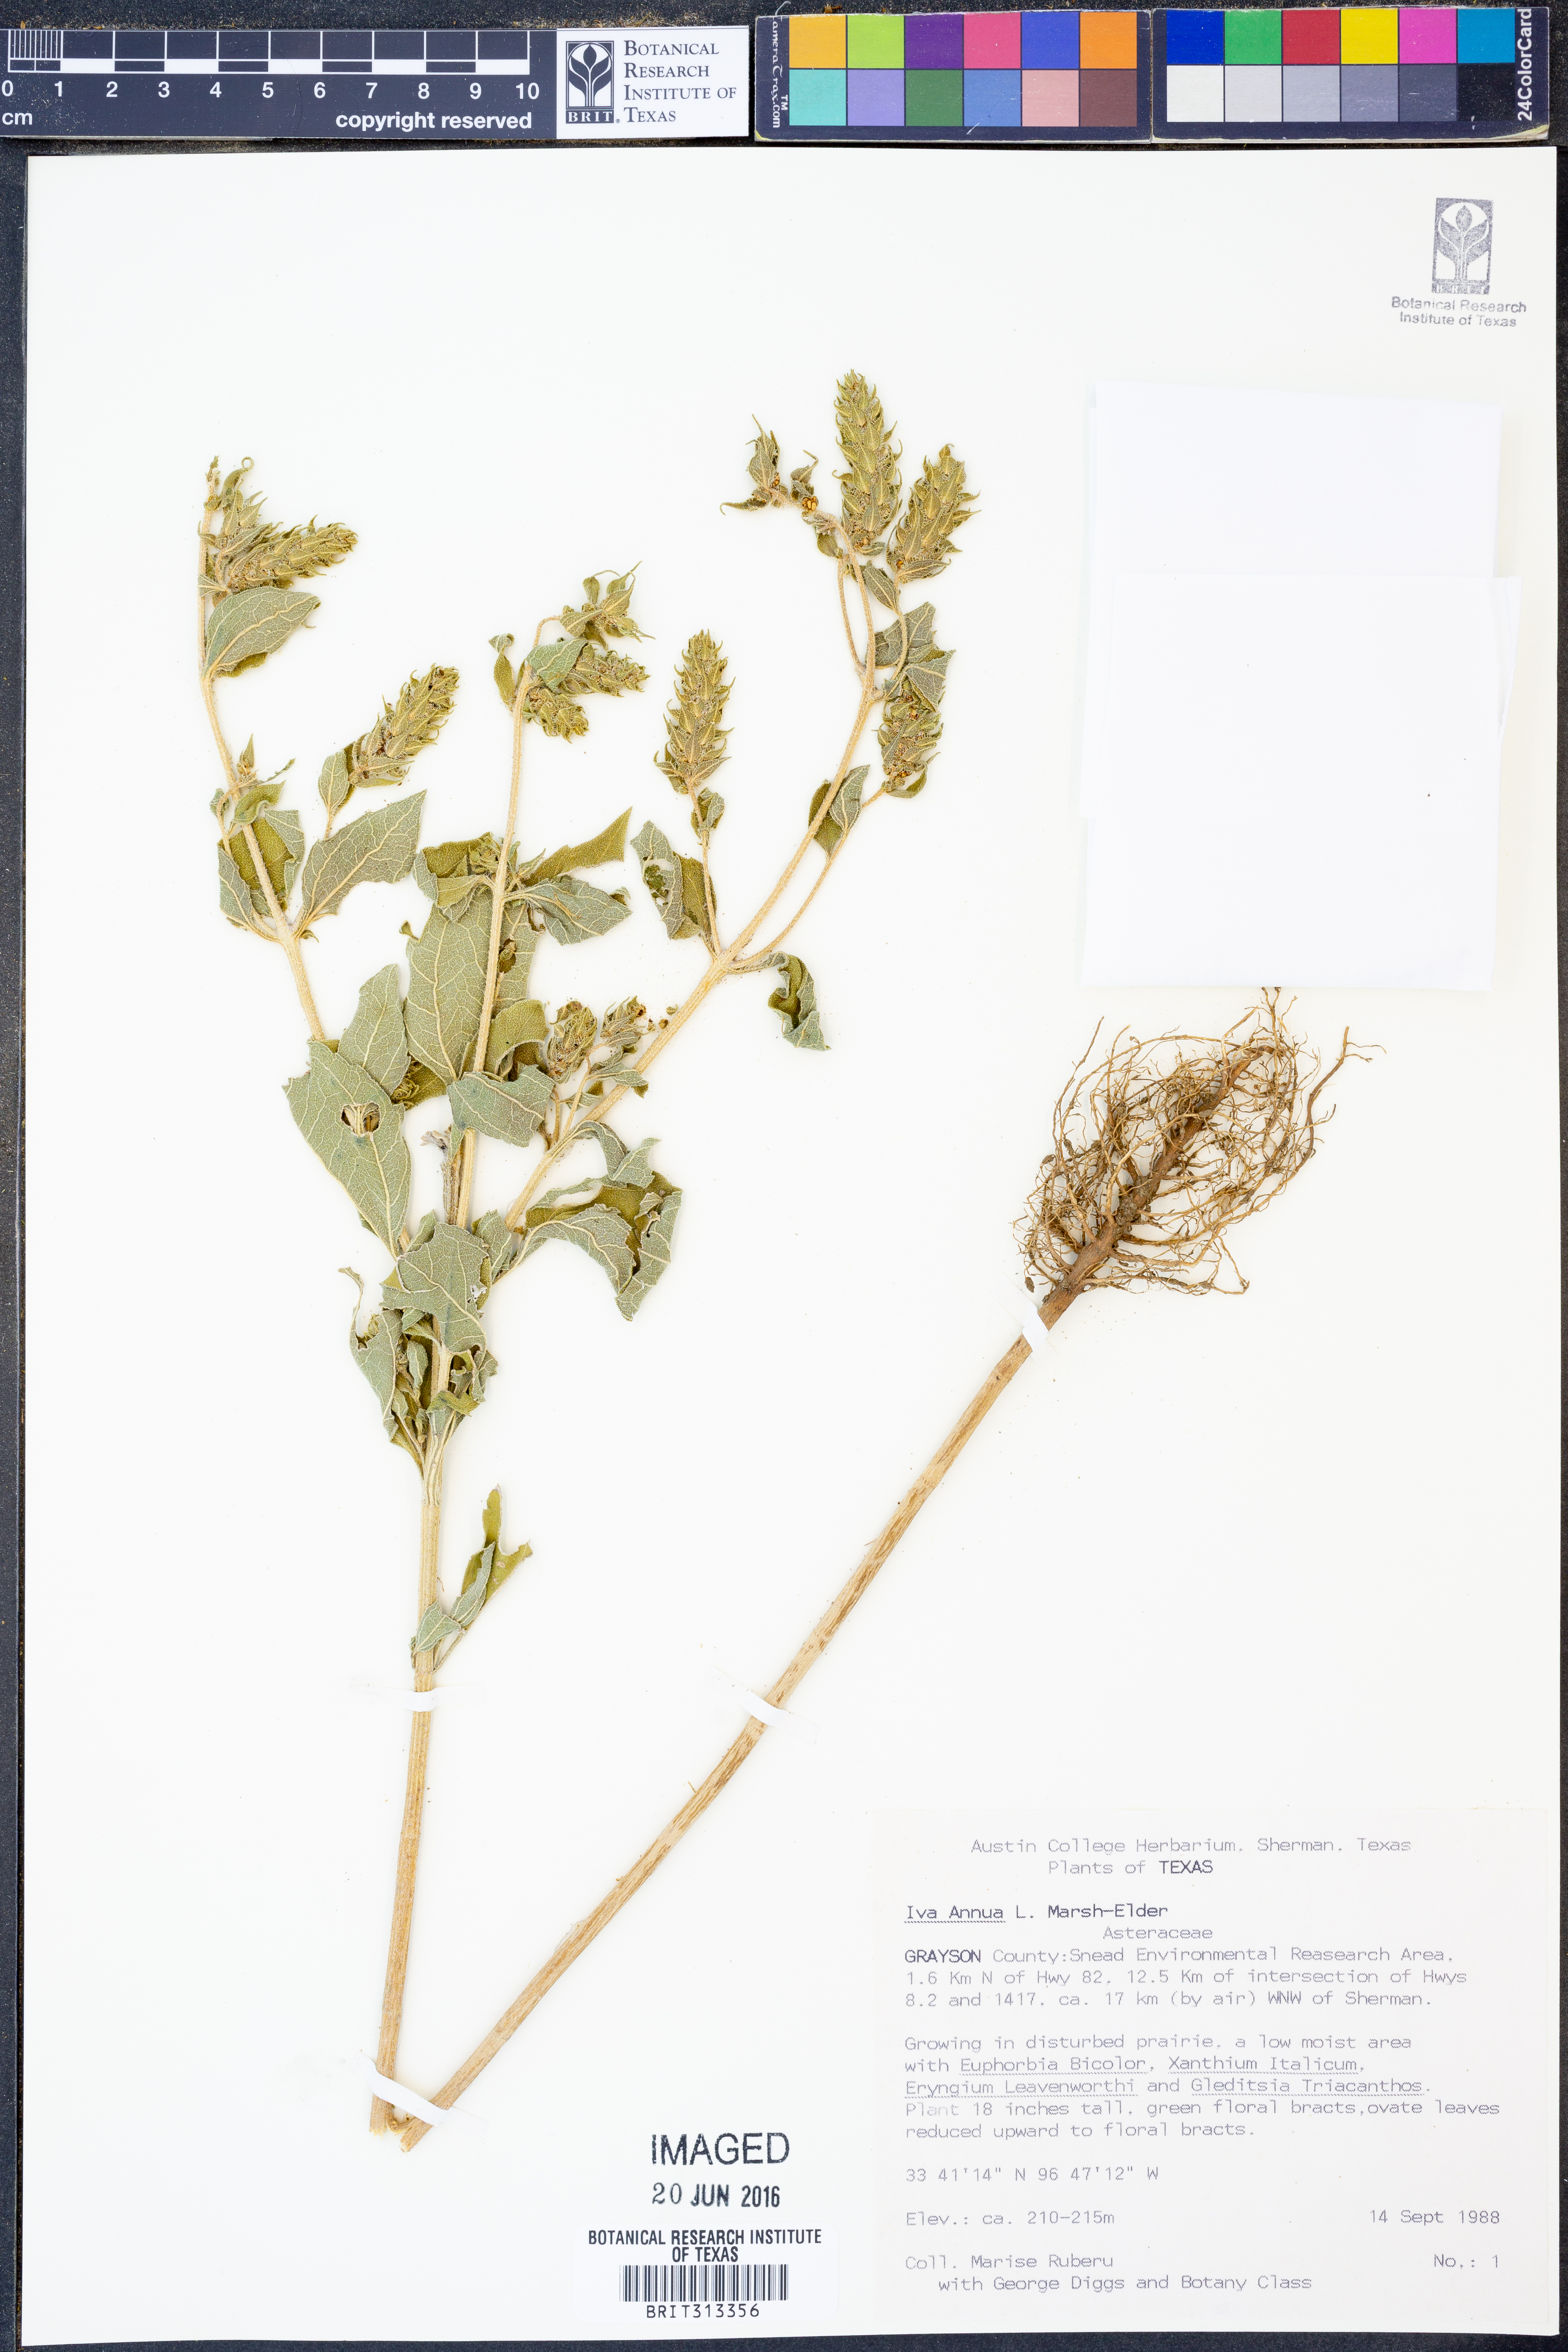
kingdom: Plantae
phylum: Tracheophyta
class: Magnoliopsida
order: Asterales
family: Asteraceae
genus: Iva
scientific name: Iva annua
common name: Marsh-elder
